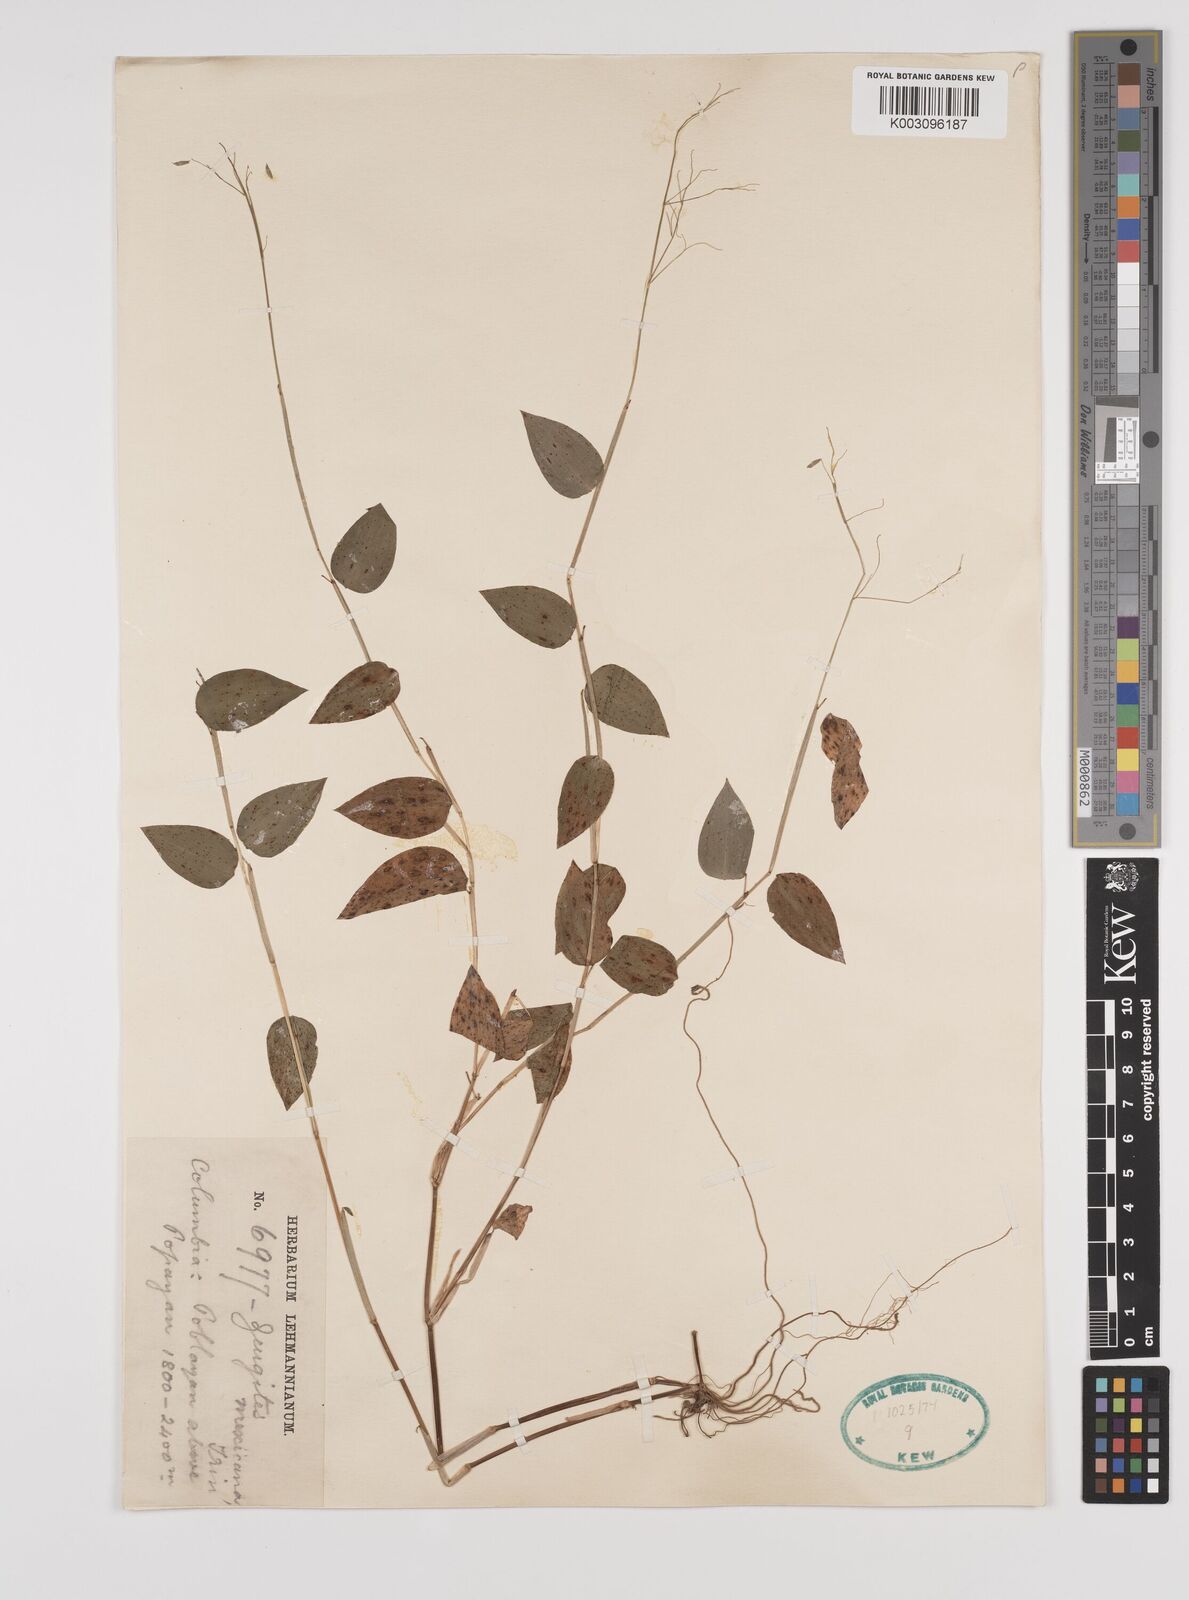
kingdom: Plantae
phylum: Tracheophyta
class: Liliopsida
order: Poales
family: Poaceae
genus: Zeugites
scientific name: Zeugites americanus
